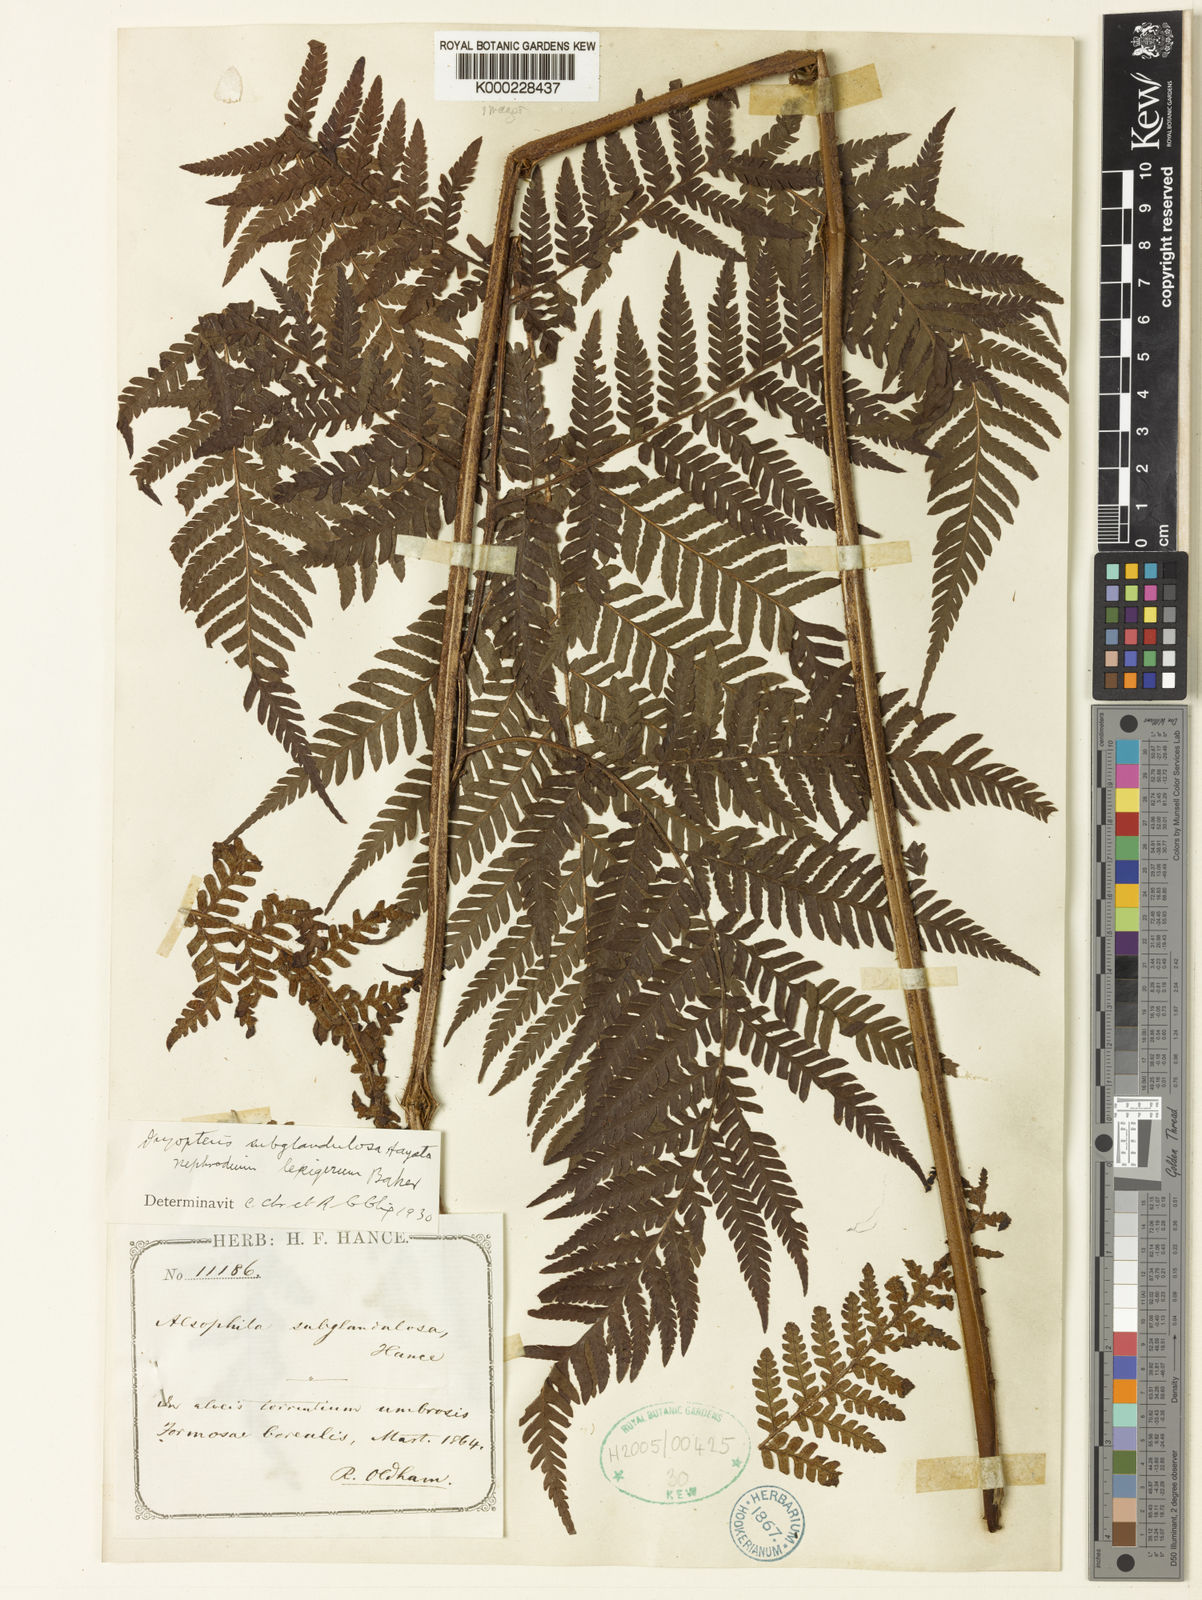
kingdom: Plantae
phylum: Tracheophyta
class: Polypodiopsida
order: Polypodiales
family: Dryopteridaceae
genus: Ctenitis
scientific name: Ctenitis subglandulosa
